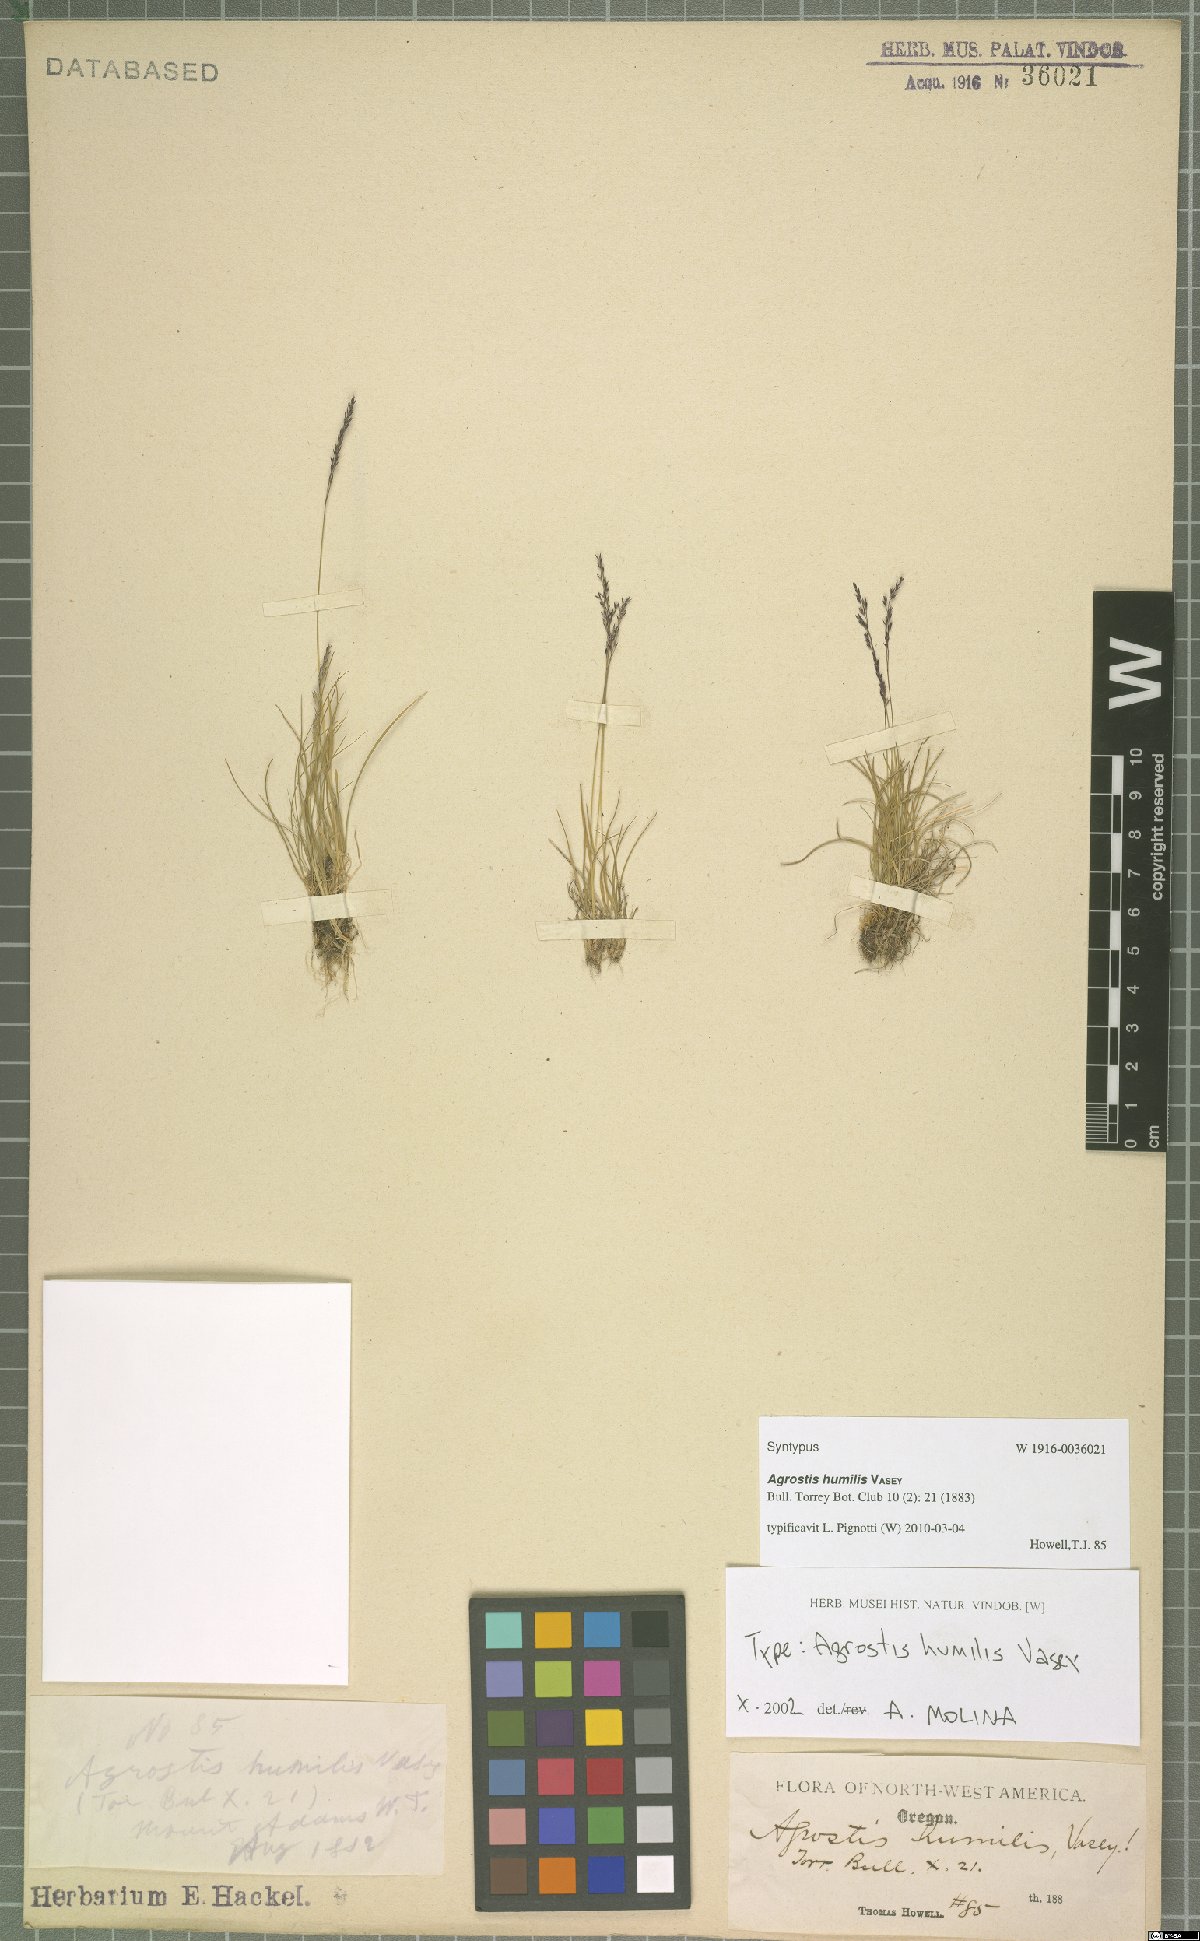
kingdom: Plantae
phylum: Tracheophyta
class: Liliopsida
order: Poales
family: Poaceae
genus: Podagrostis
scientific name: Podagrostis humilis
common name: Thurber's bentgrass
